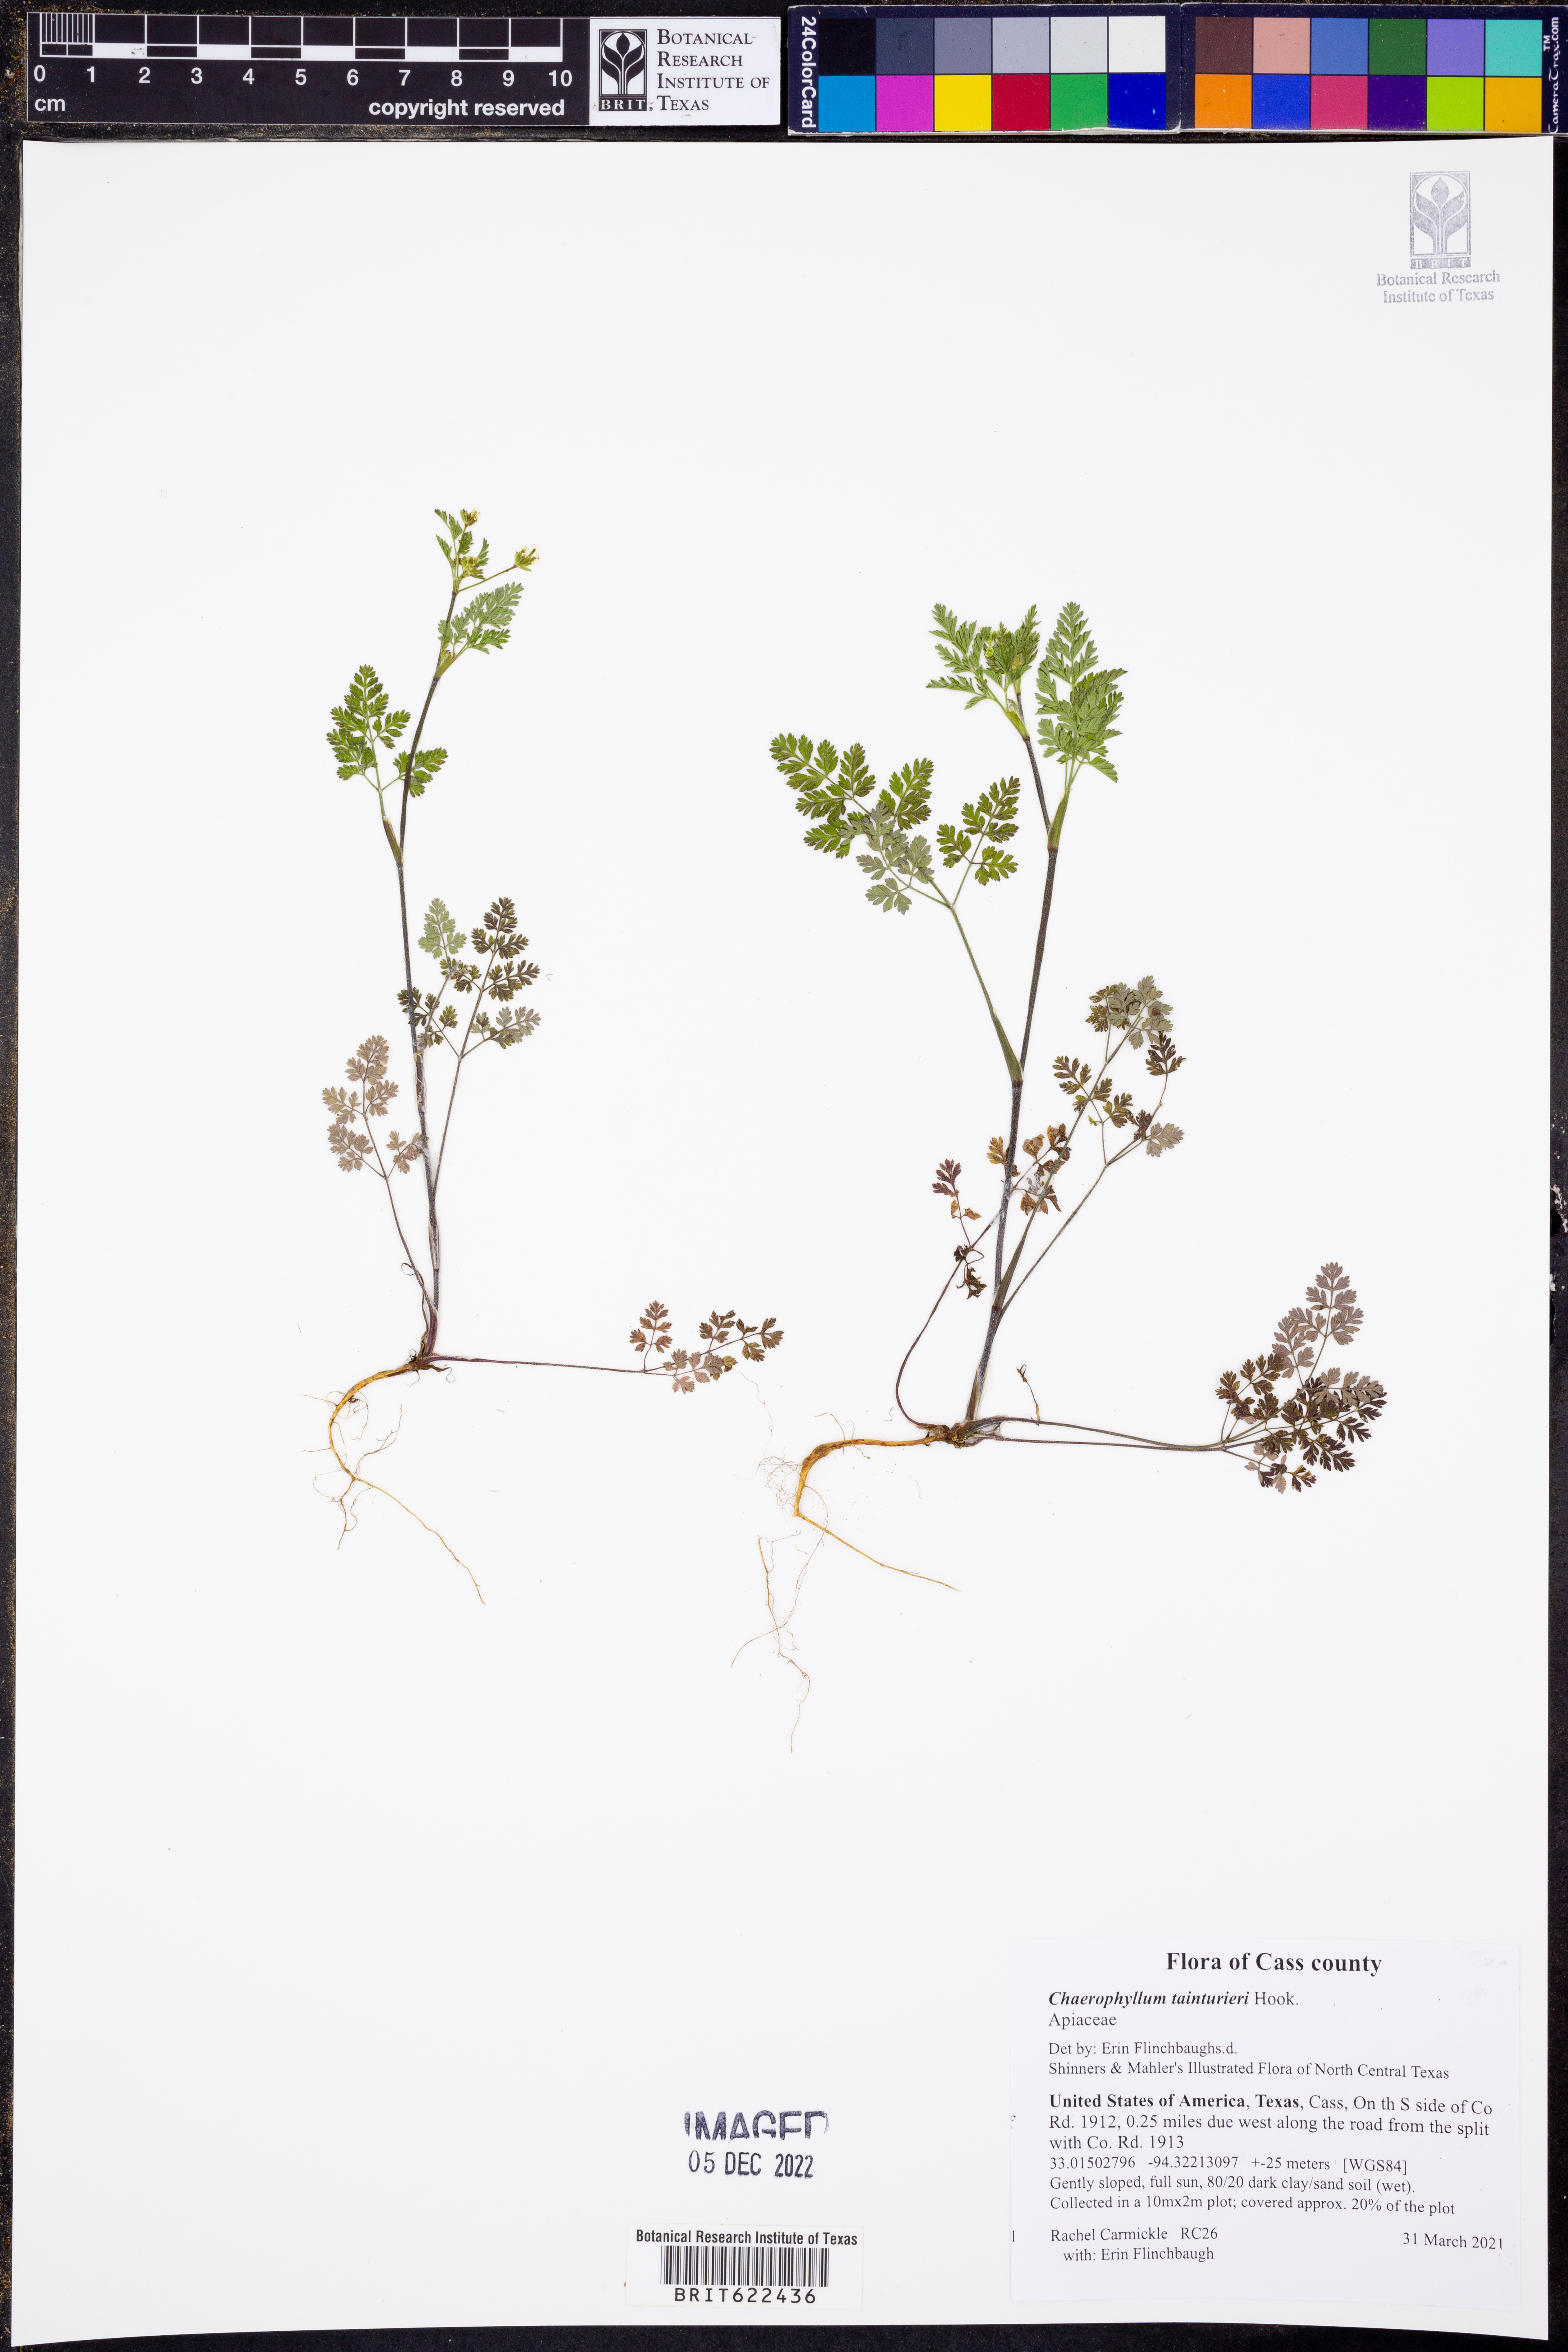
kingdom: Plantae
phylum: Tracheophyta
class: Magnoliopsida
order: Apiales
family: Apiaceae
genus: Chaerophyllum
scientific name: Chaerophyllum tainturieri
